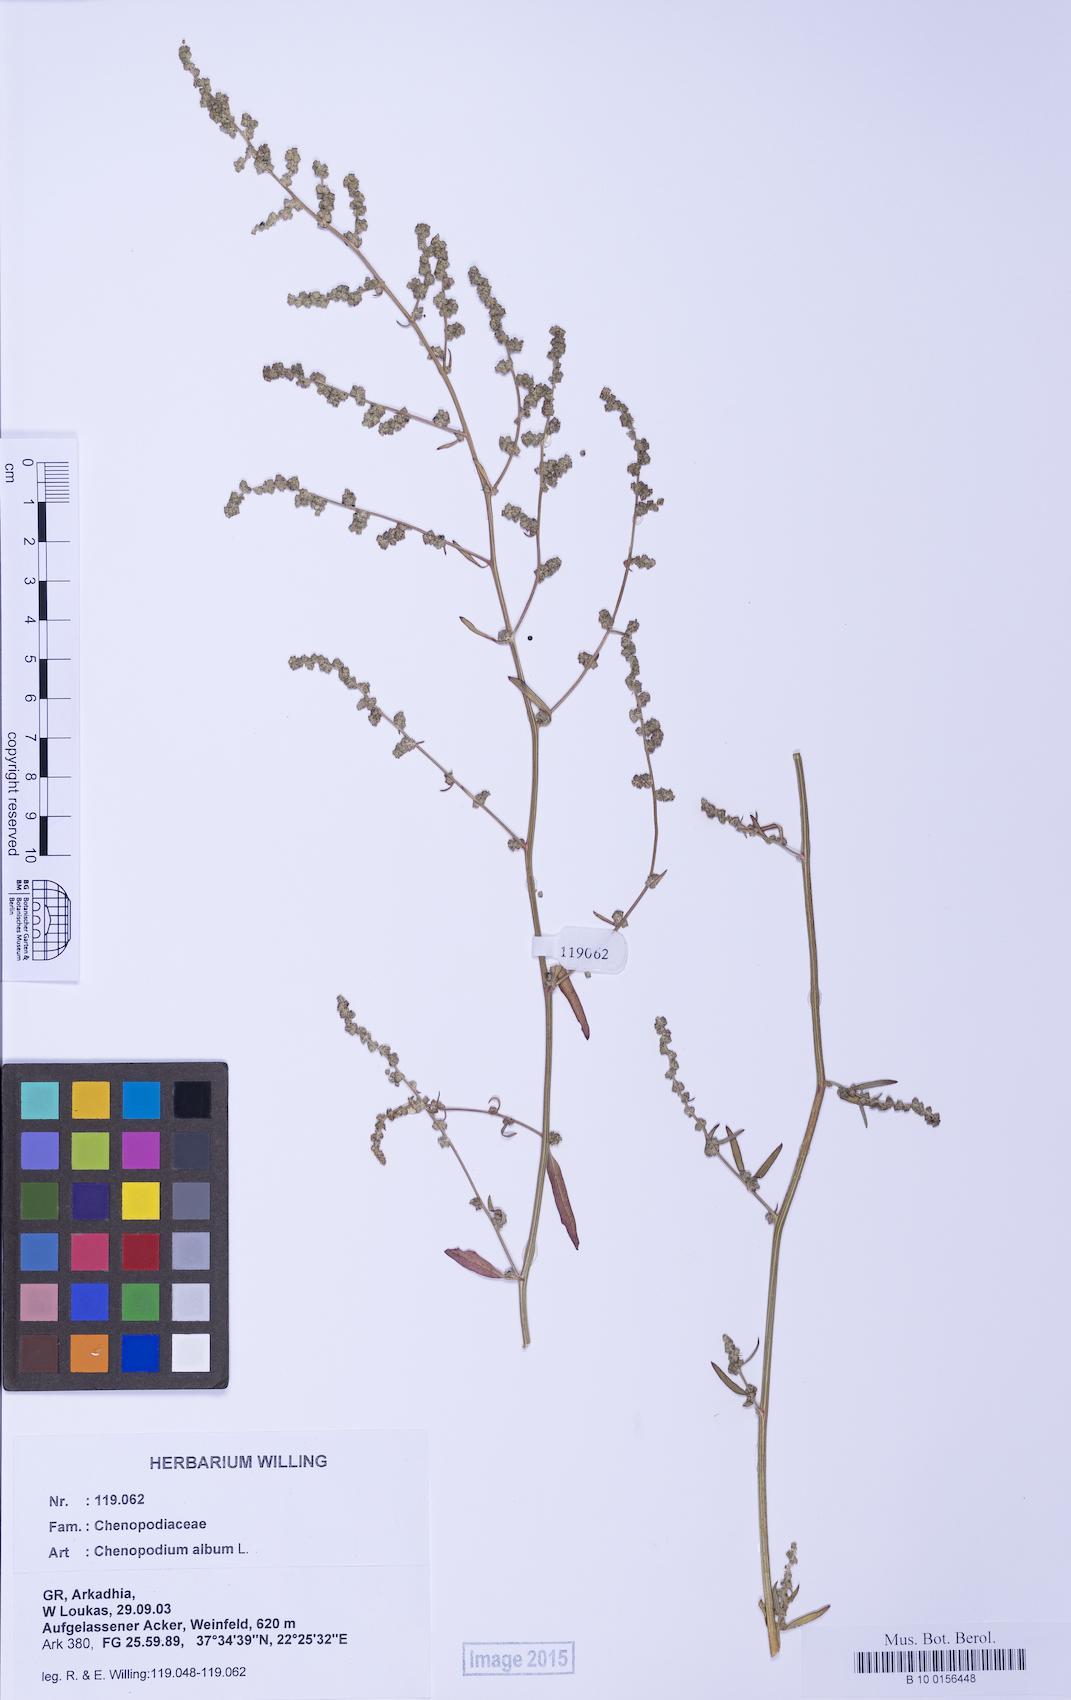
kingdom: Plantae
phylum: Tracheophyta
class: Magnoliopsida
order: Caryophyllales
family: Amaranthaceae
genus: Chenopodium
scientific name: Chenopodium album
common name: Fat-hen
